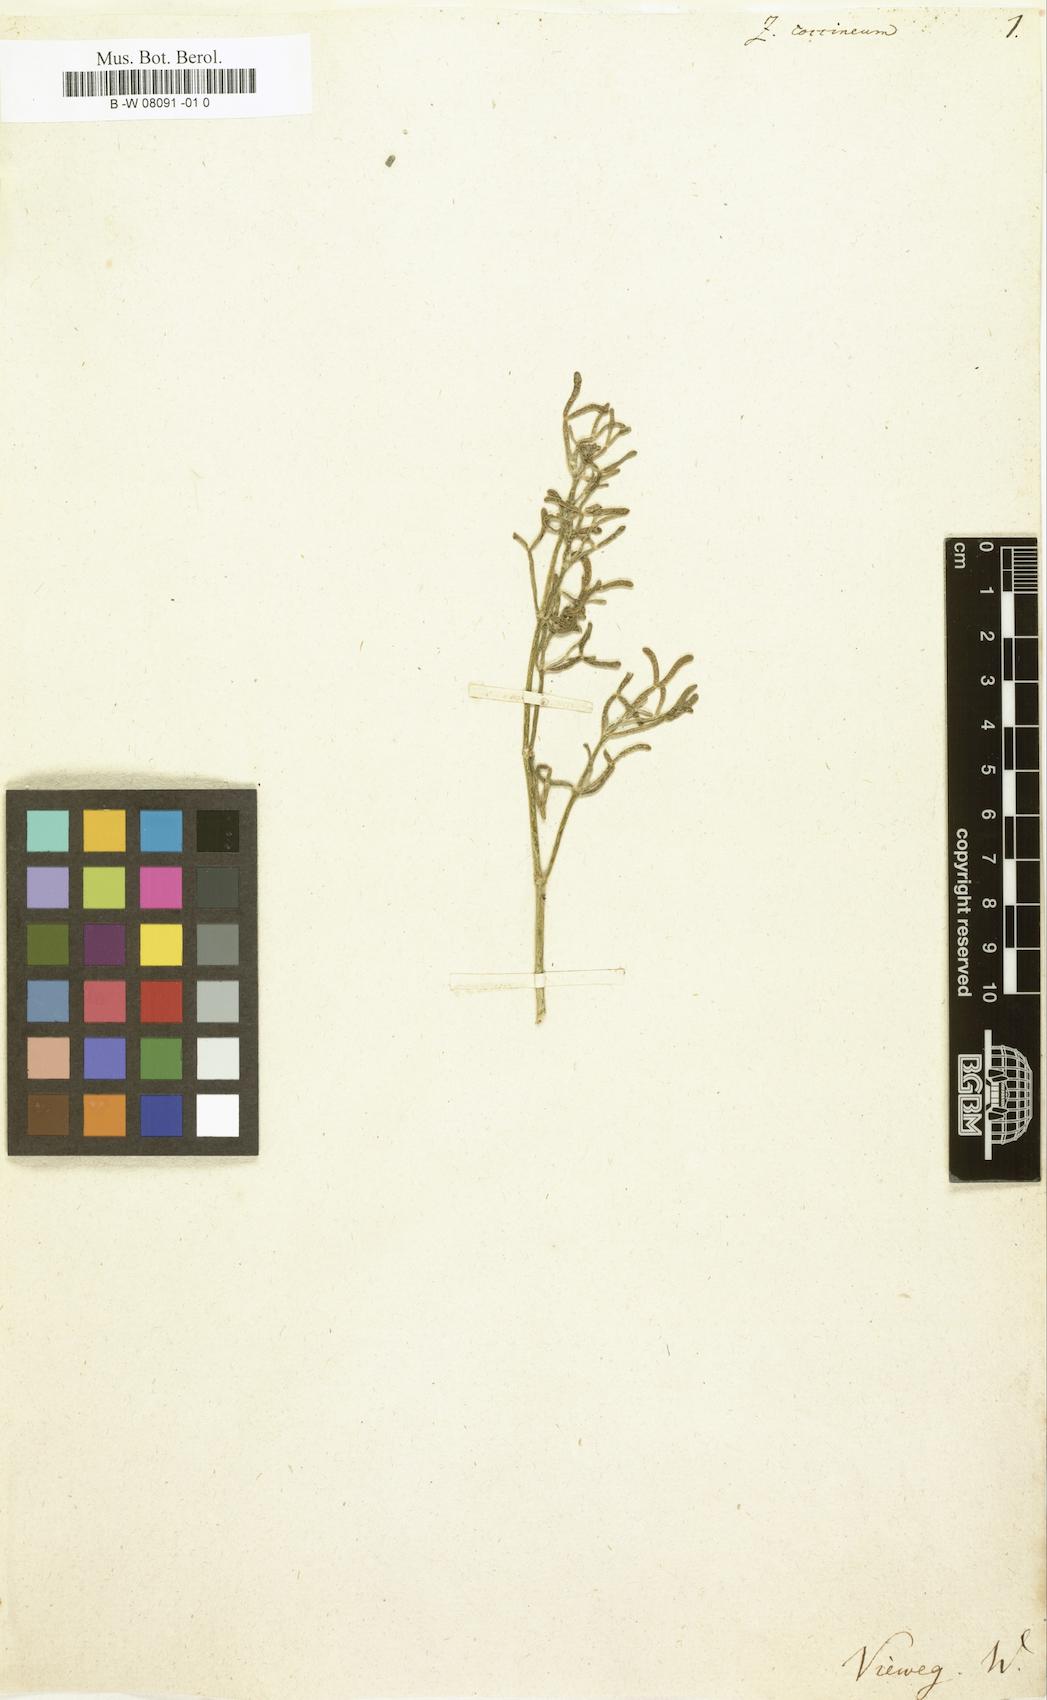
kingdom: Plantae
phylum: Tracheophyta
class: Magnoliopsida
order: Zygophyllales
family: Zygophyllaceae
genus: Tetraena
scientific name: Tetraena coccinea
